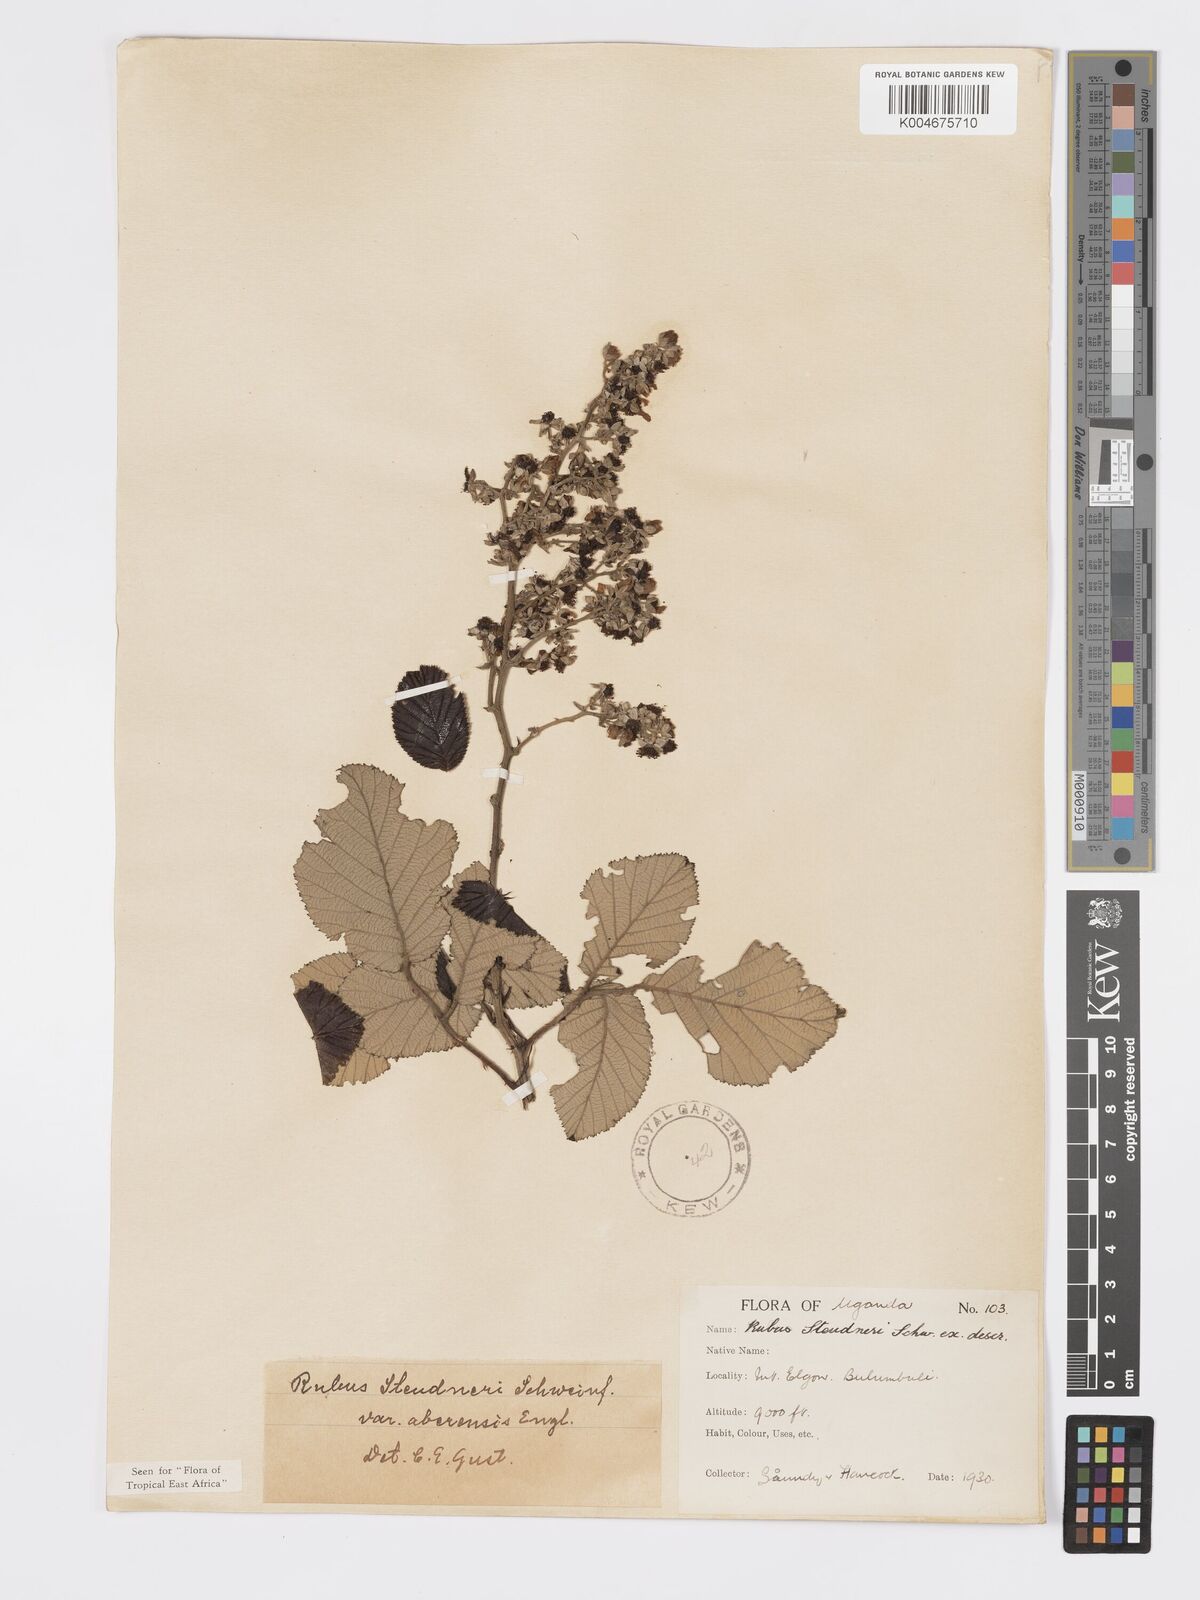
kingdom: Plantae
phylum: Tracheophyta
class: Magnoliopsida
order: Rosales
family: Rosaceae
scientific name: Rosaceae
